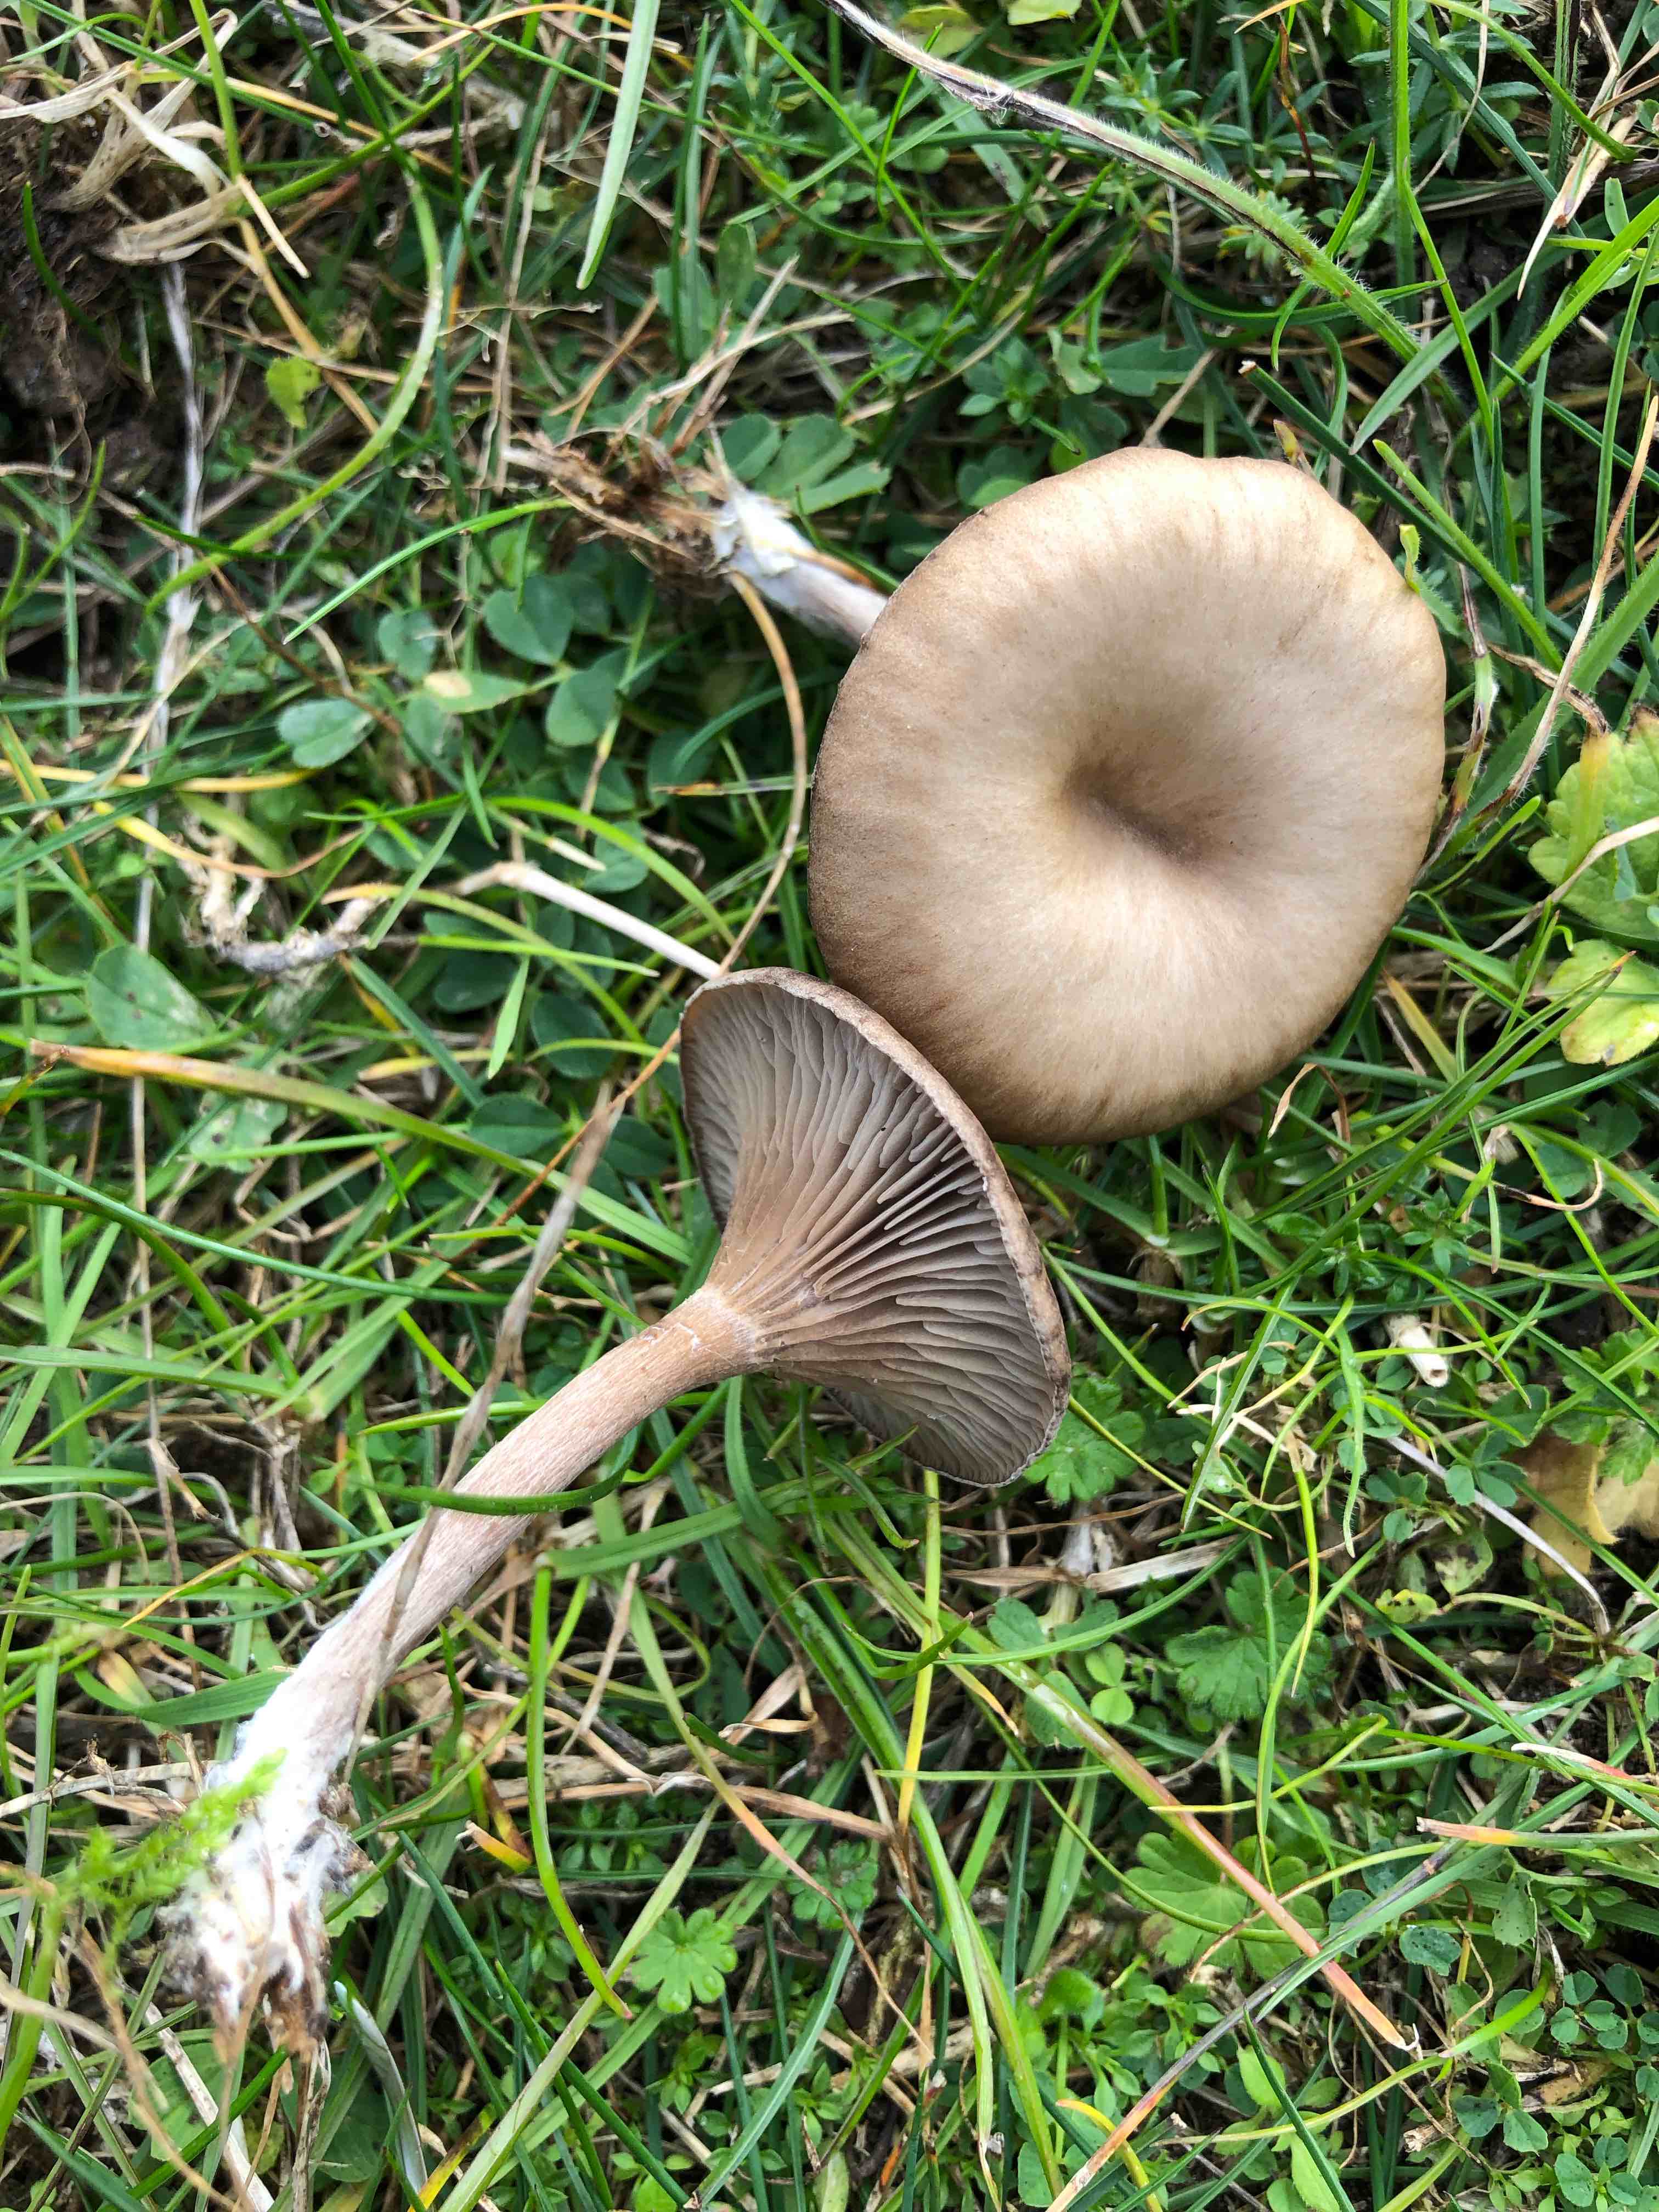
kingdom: Fungi
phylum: Basidiomycota
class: Agaricomycetes
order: Agaricales
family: Pseudoclitocybaceae
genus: Pseudoclitocybe
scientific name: Pseudoclitocybe
